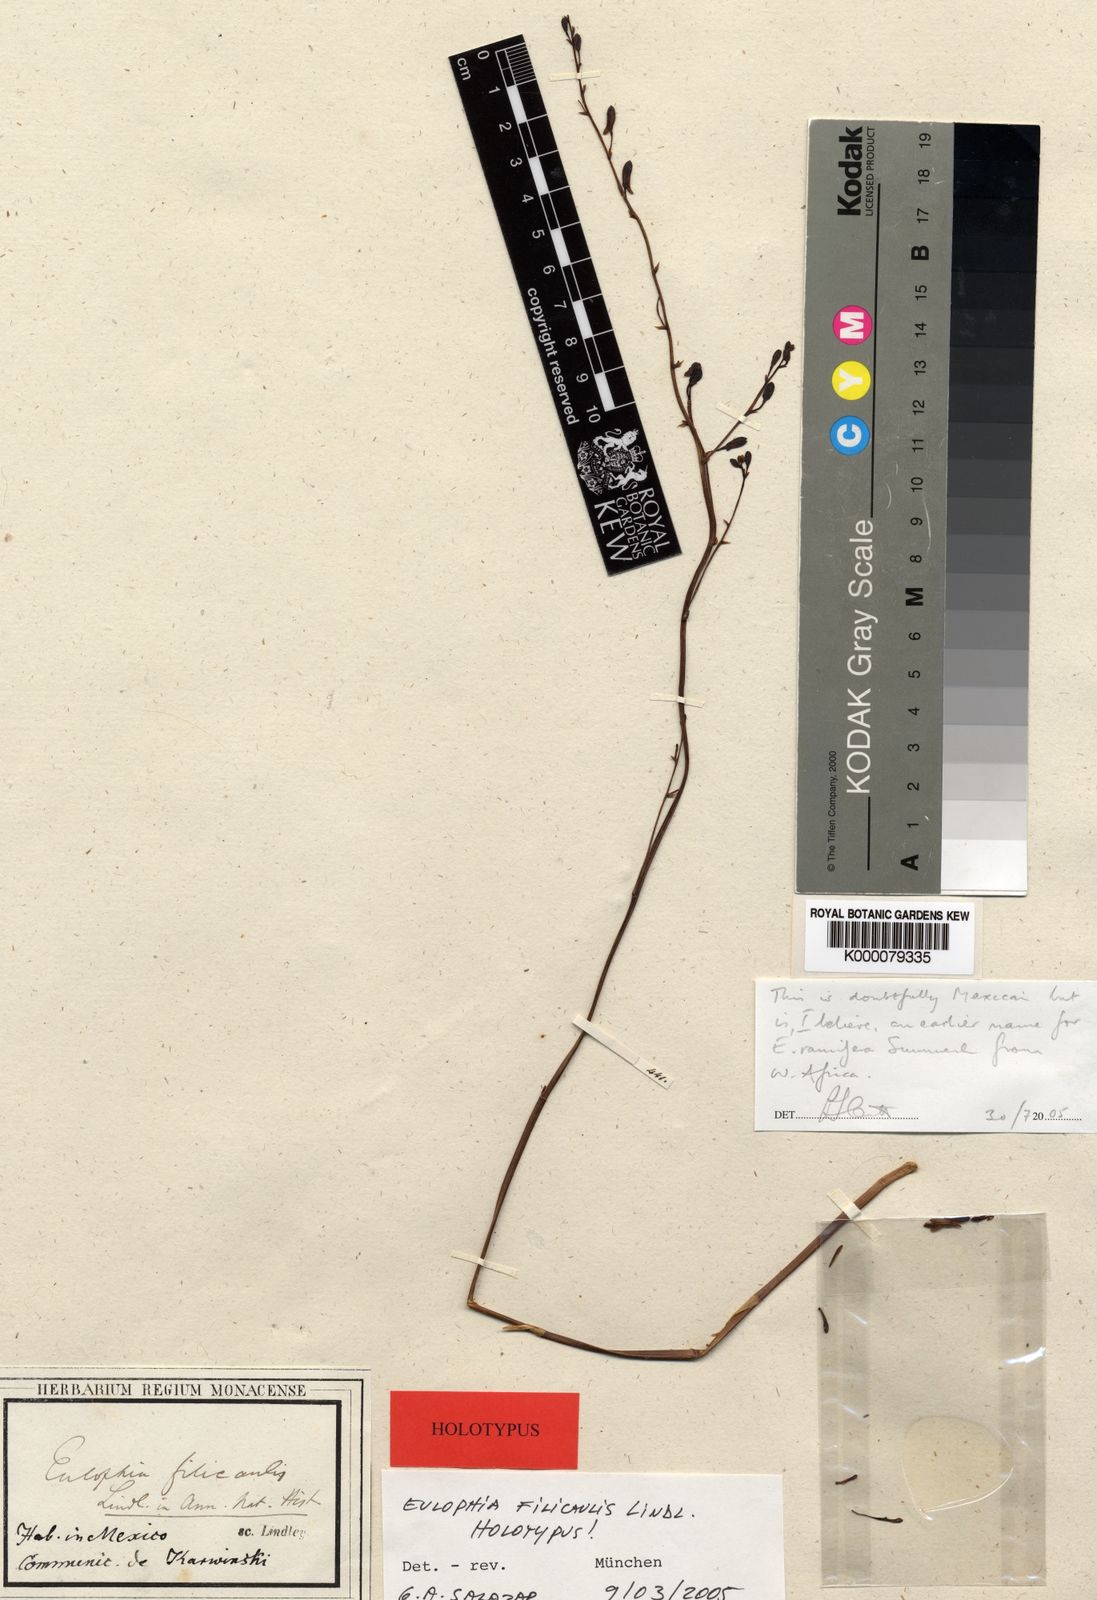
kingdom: Plantae
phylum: Tracheophyta
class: Liliopsida
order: Asparagales
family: Orchidaceae
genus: Eulophia
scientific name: Eulophia ramifera
